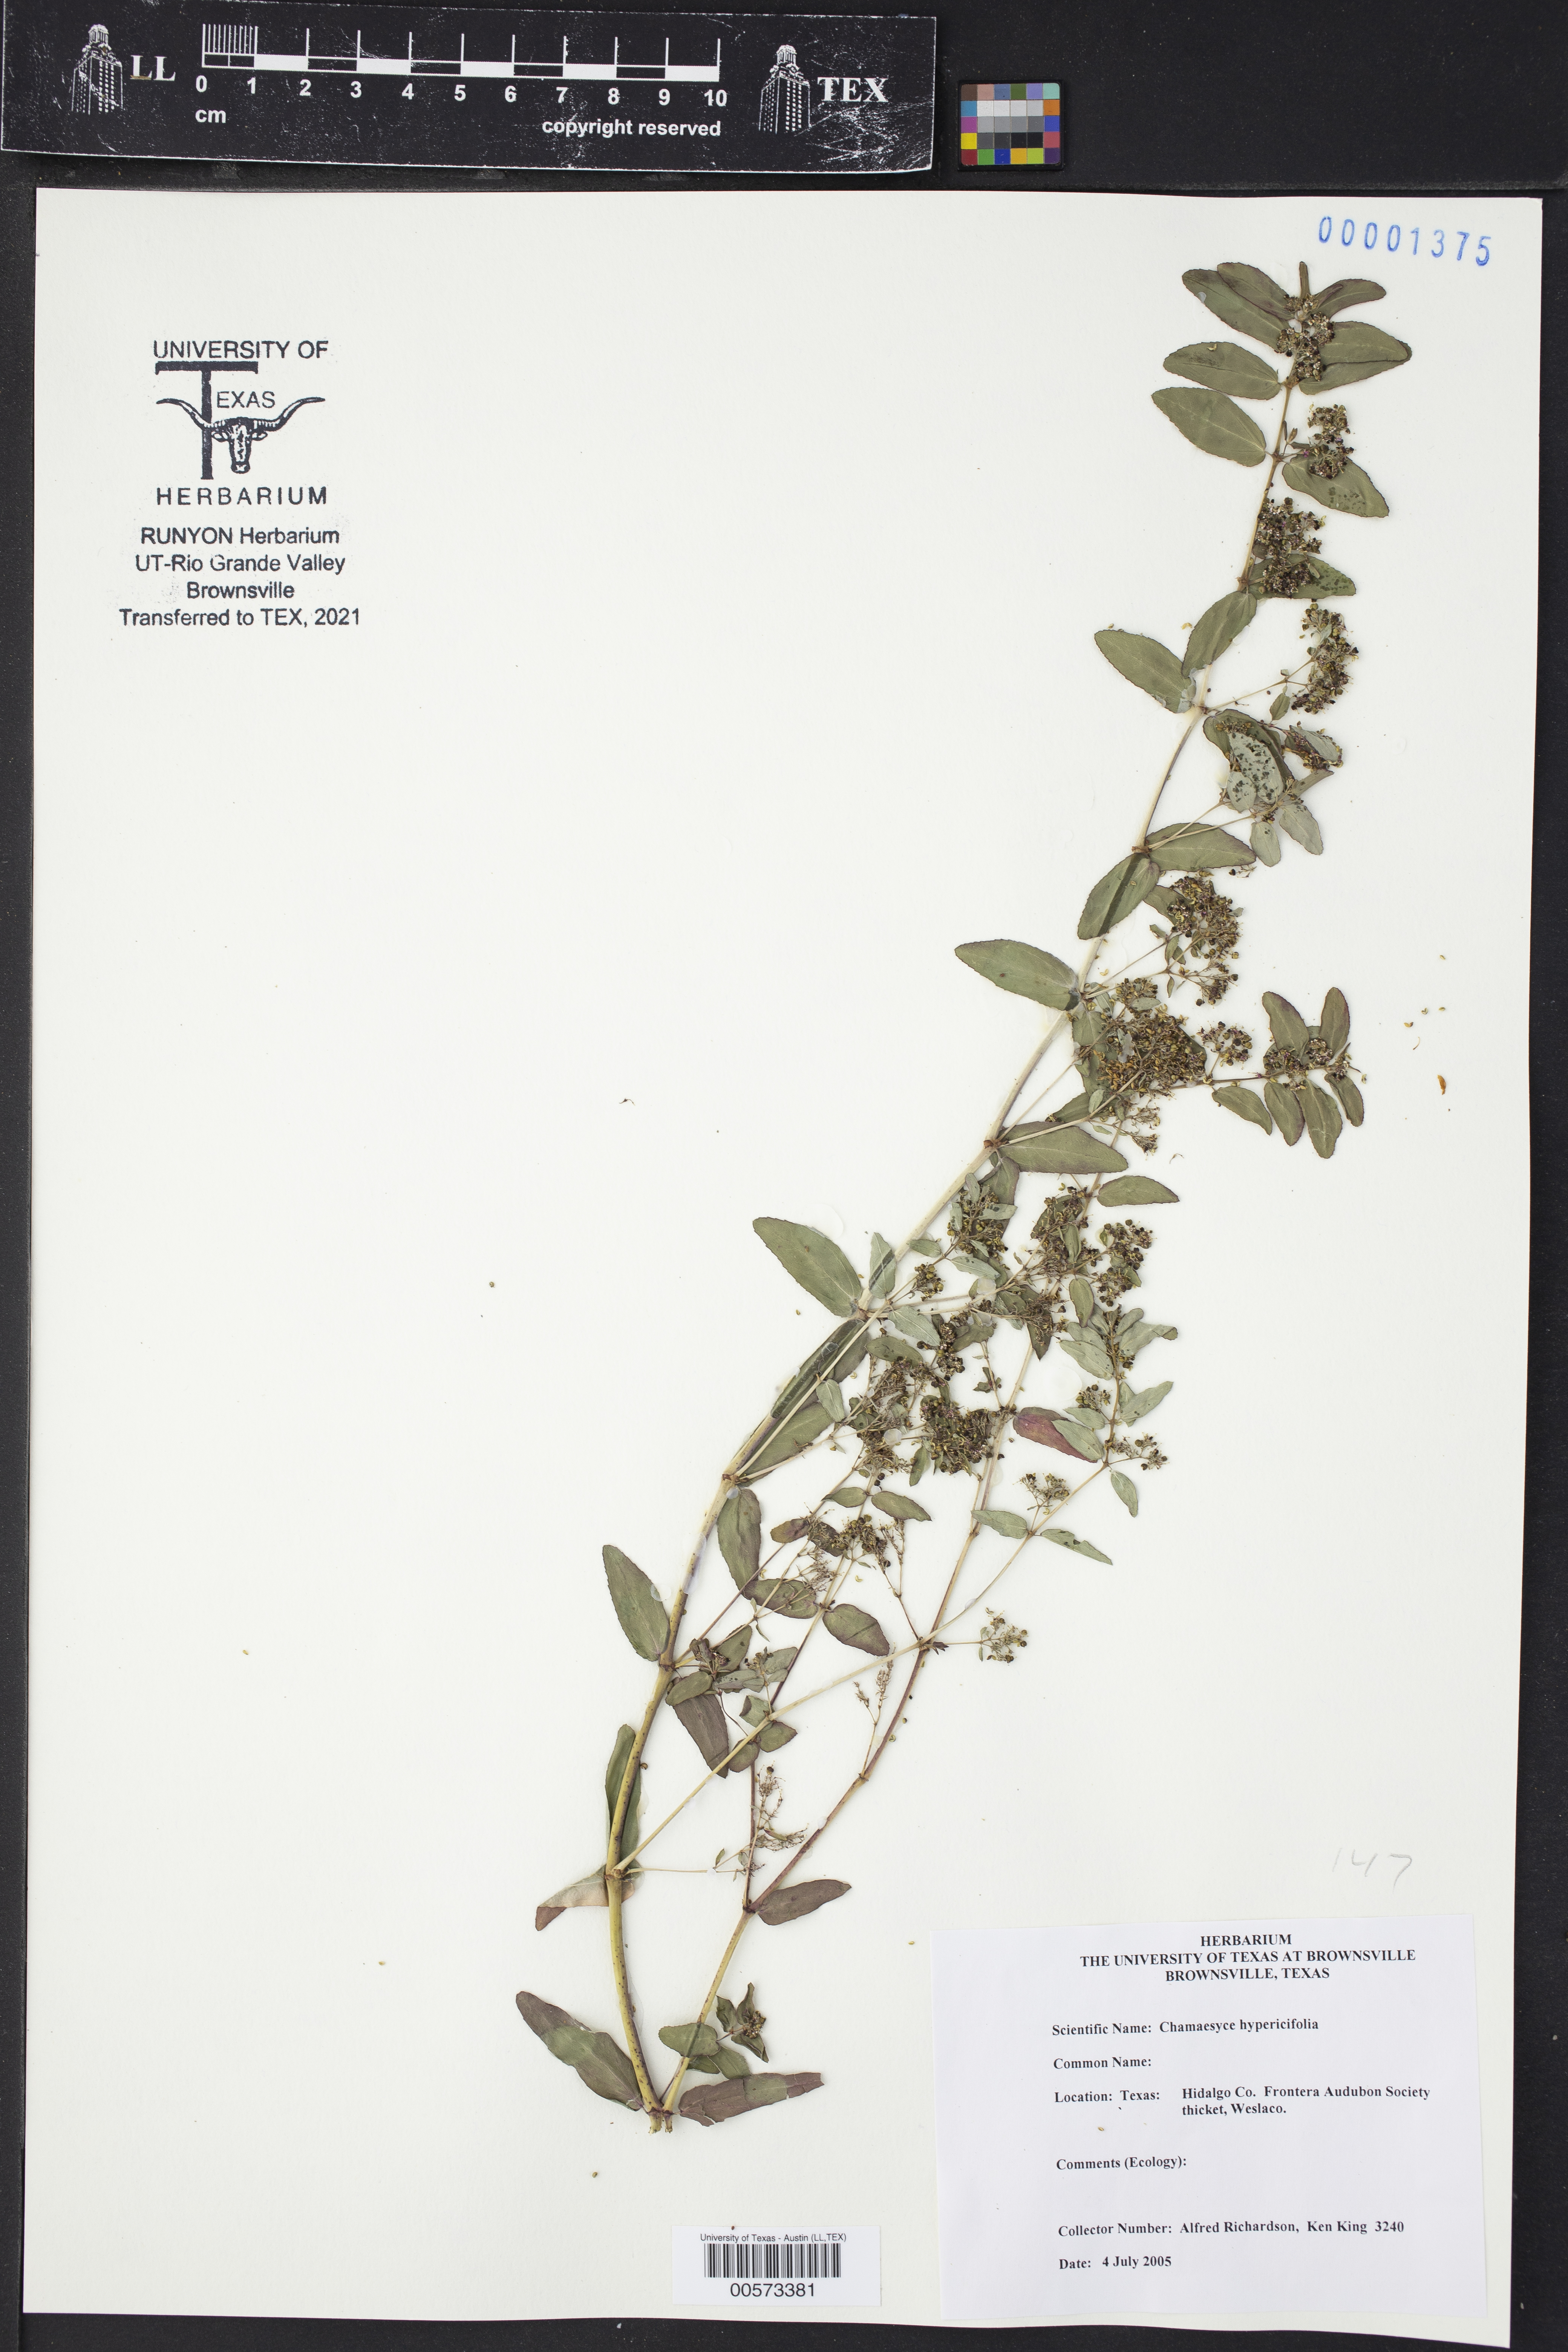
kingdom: Plantae
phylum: Tracheophyta
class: Magnoliopsida
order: Malpighiales
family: Euphorbiaceae
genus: Euphorbia
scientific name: Euphorbia hypericifolia
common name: Graceful sandmat
